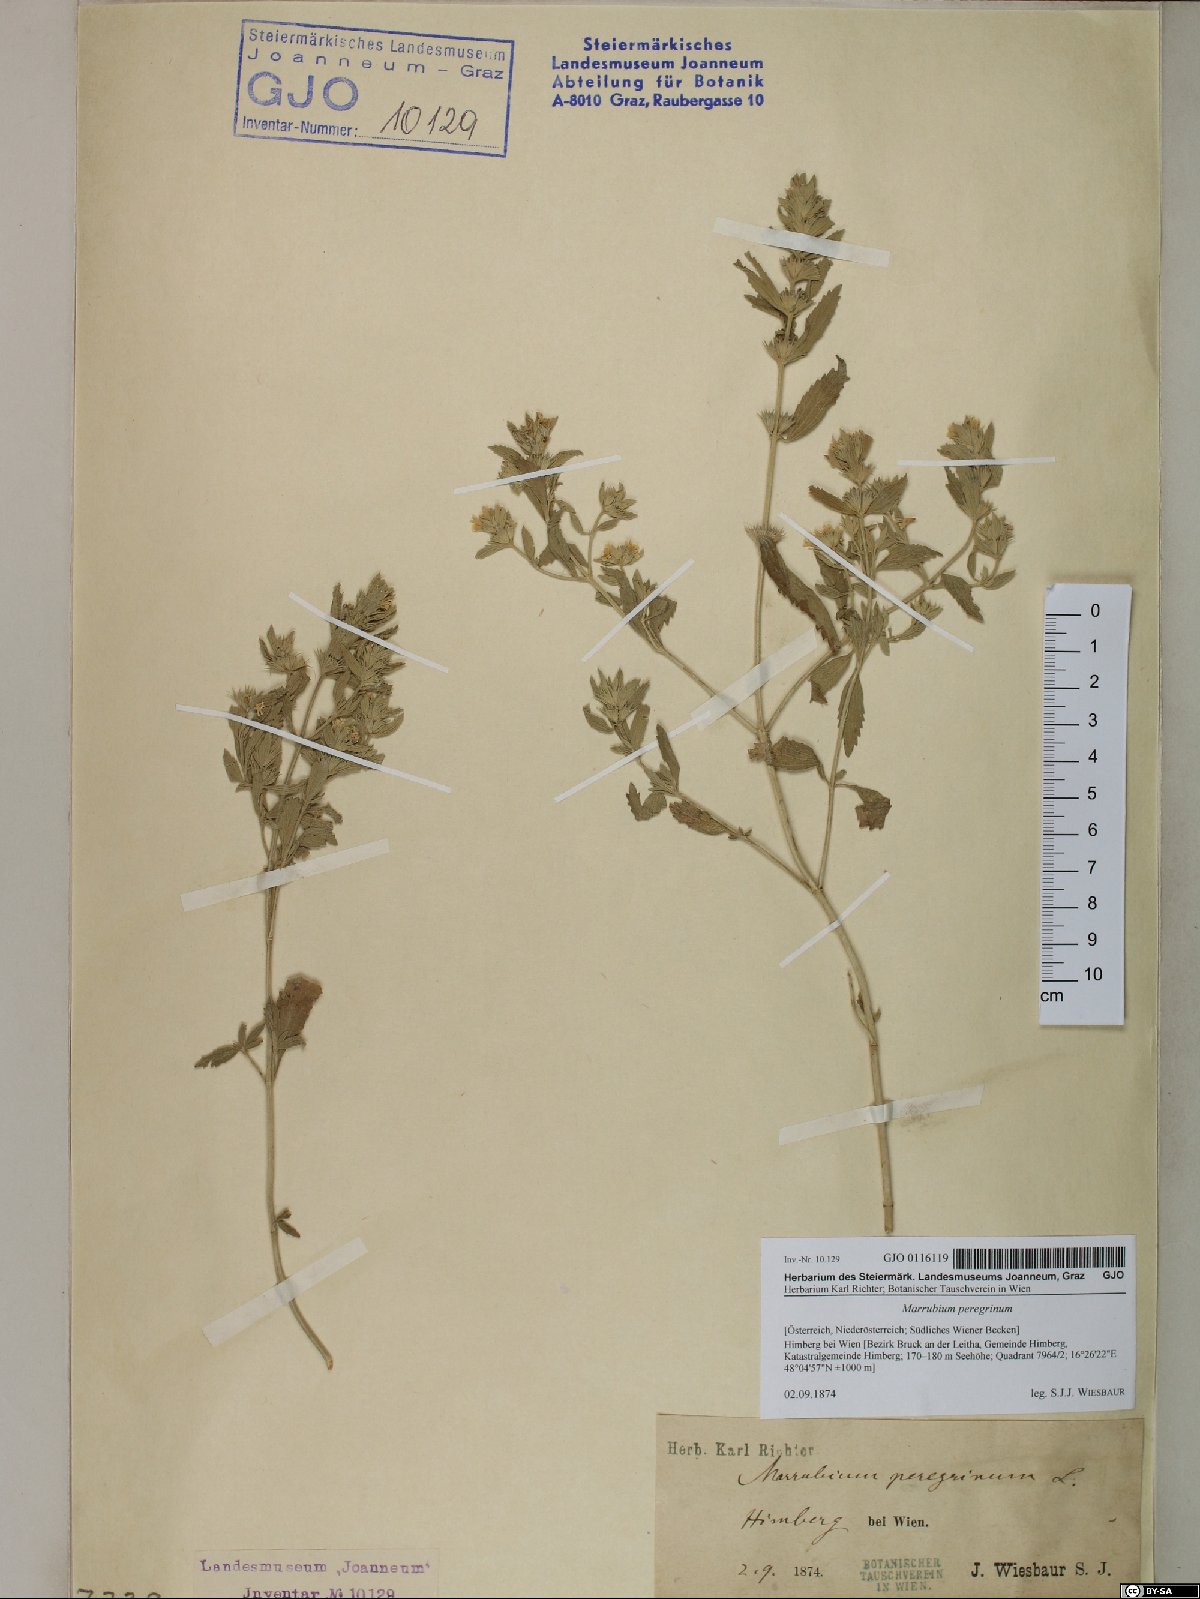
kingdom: Plantae
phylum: Tracheophyta
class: Magnoliopsida
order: Lamiales
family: Lamiaceae
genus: Marrubium
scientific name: Marrubium peregrinum
